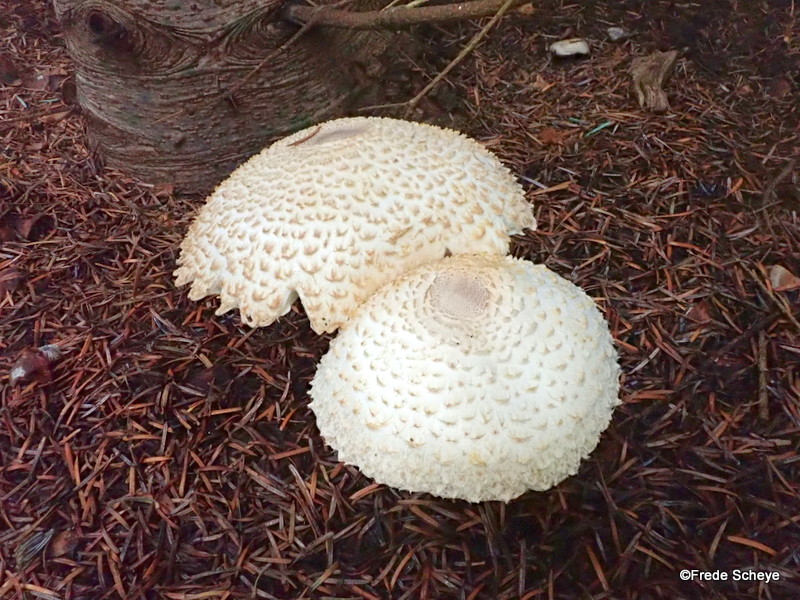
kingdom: Fungi
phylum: Basidiomycota
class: Agaricomycetes
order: Agaricales
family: Agaricaceae
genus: Leucoagaricus
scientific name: Leucoagaricus nympharum
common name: gran-silkehat
